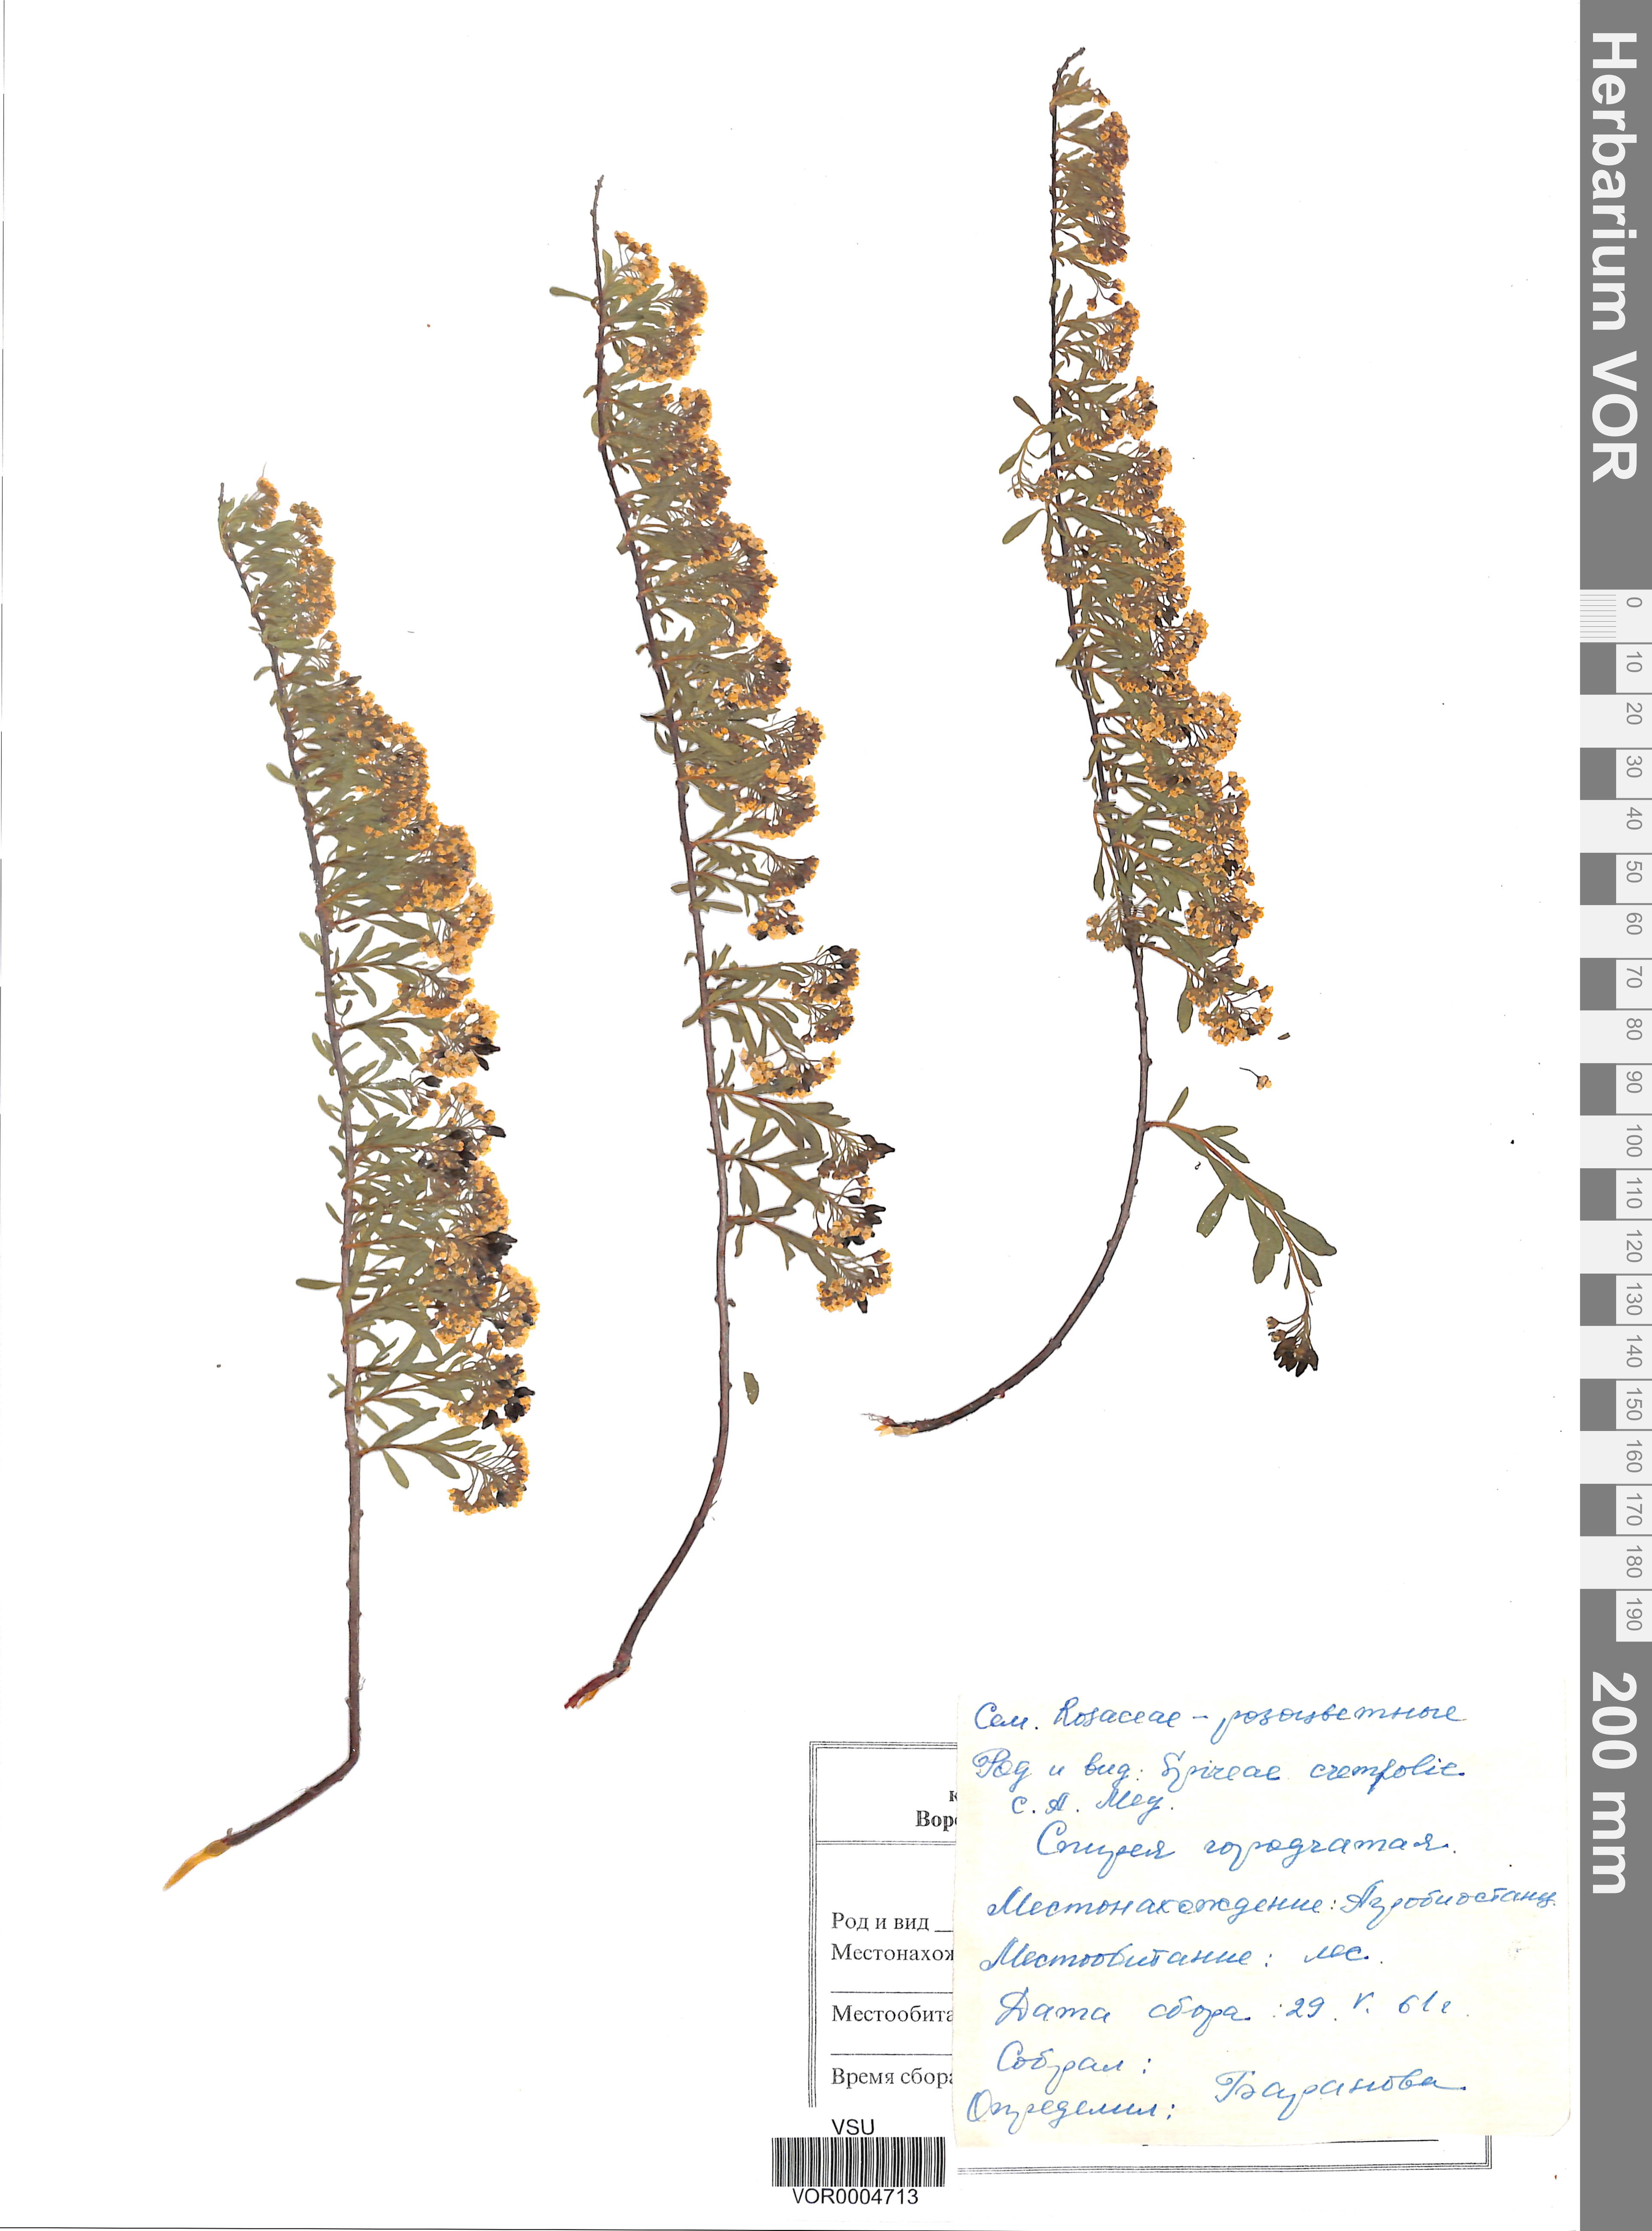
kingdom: Plantae
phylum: Tracheophyta
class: Magnoliopsida
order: Rosales
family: Rosaceae
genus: Spiraea
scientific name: Spiraea crenata
